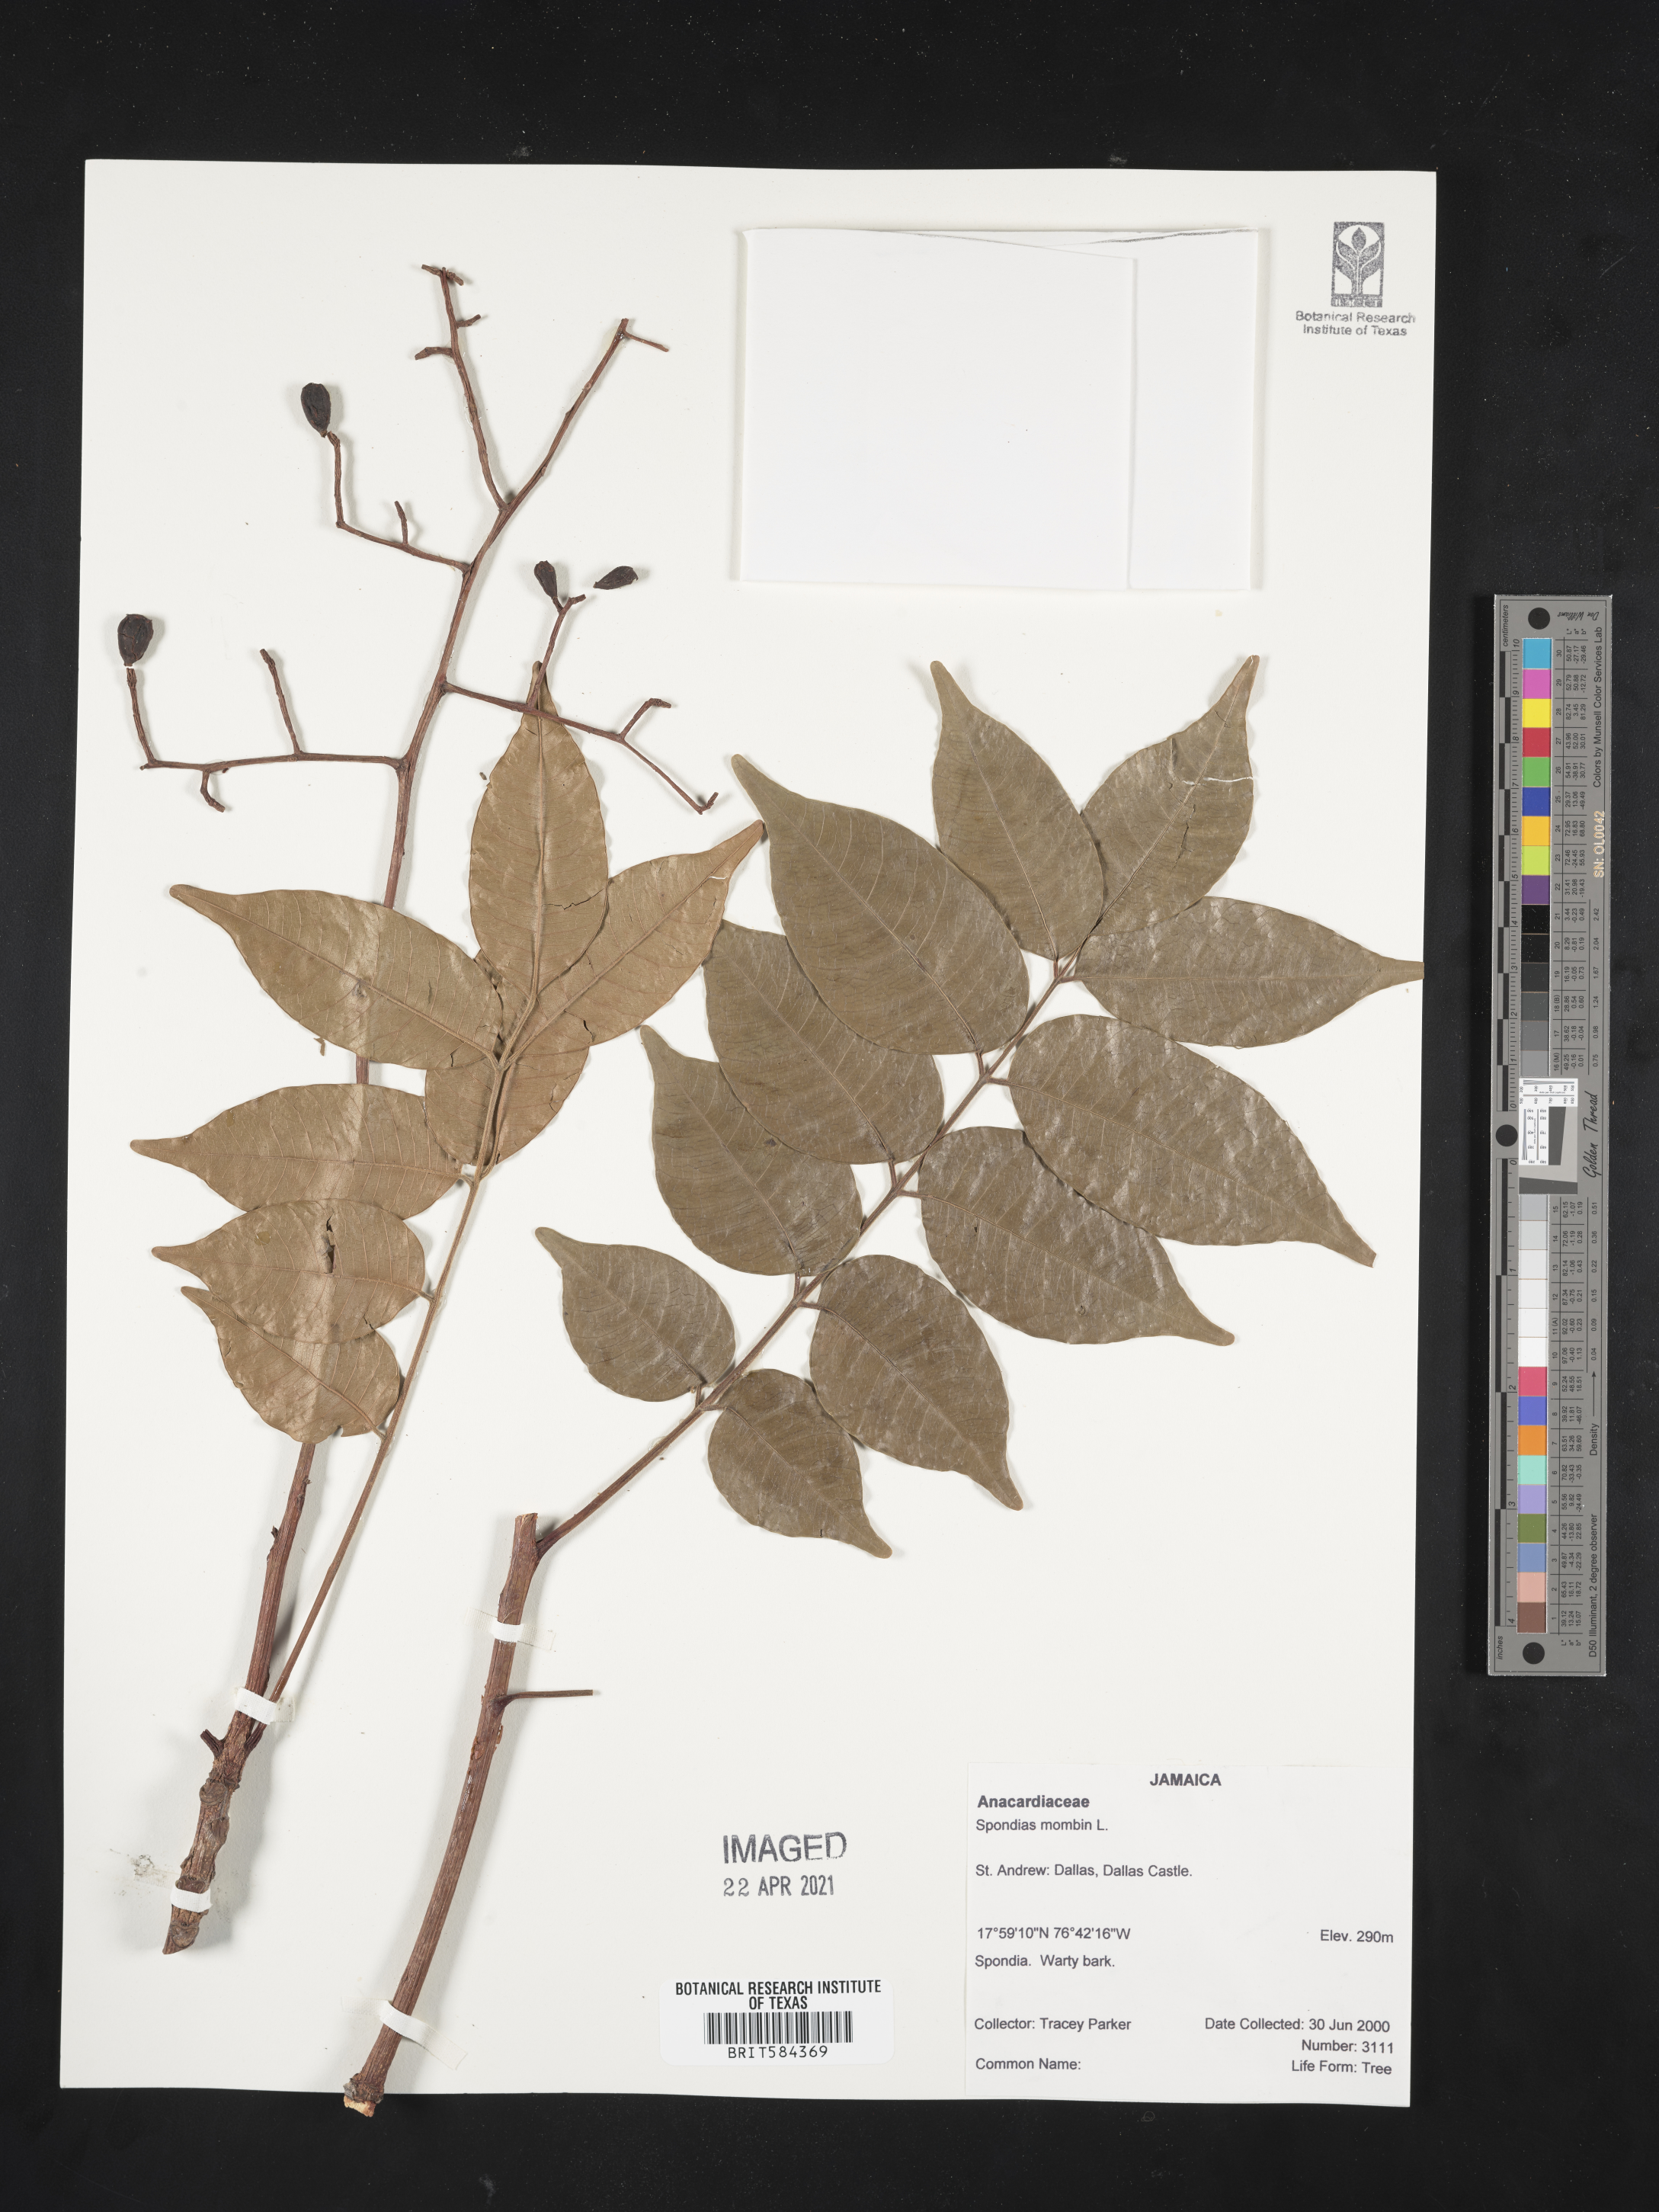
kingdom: Plantae
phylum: Tracheophyta
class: Magnoliopsida
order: Sapindales
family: Anacardiaceae
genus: Spondias
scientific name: Spondias mombin
